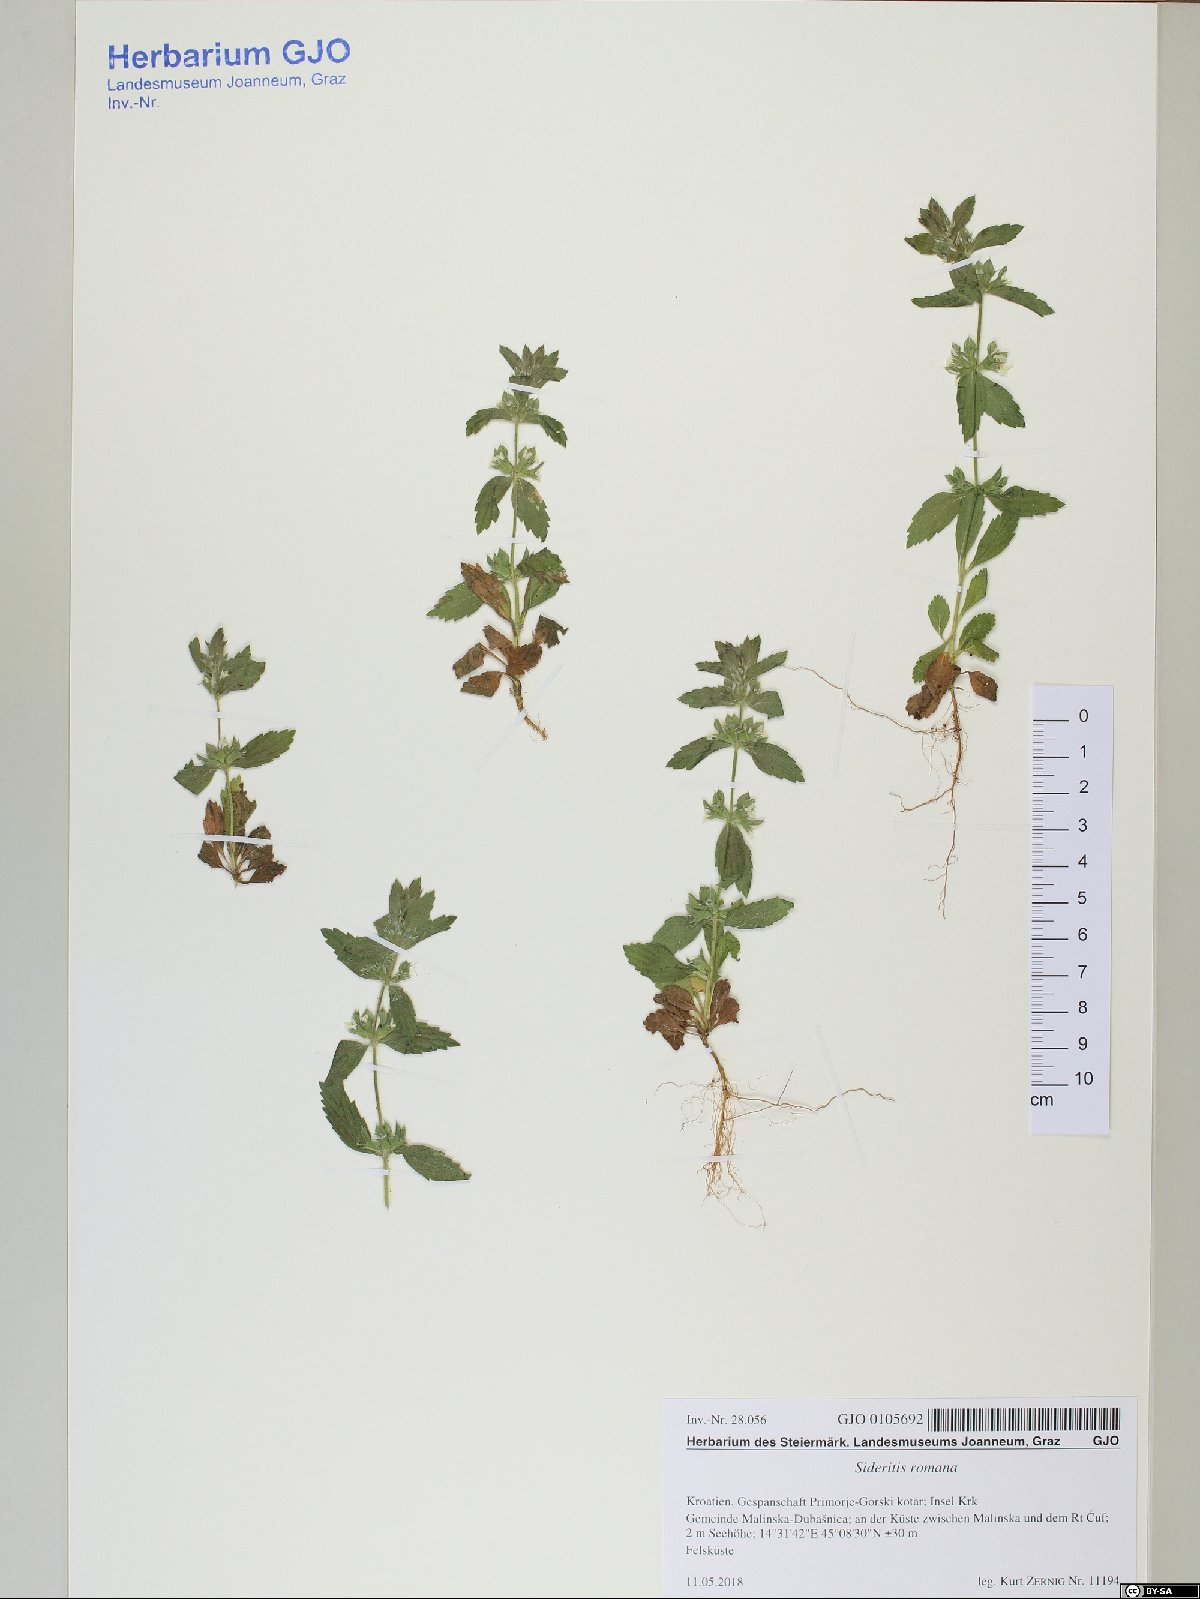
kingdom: Plantae
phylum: Tracheophyta
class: Magnoliopsida
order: Lamiales
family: Lamiaceae
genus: Sideritis
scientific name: Sideritis romana
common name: Simplebeak ironwort
